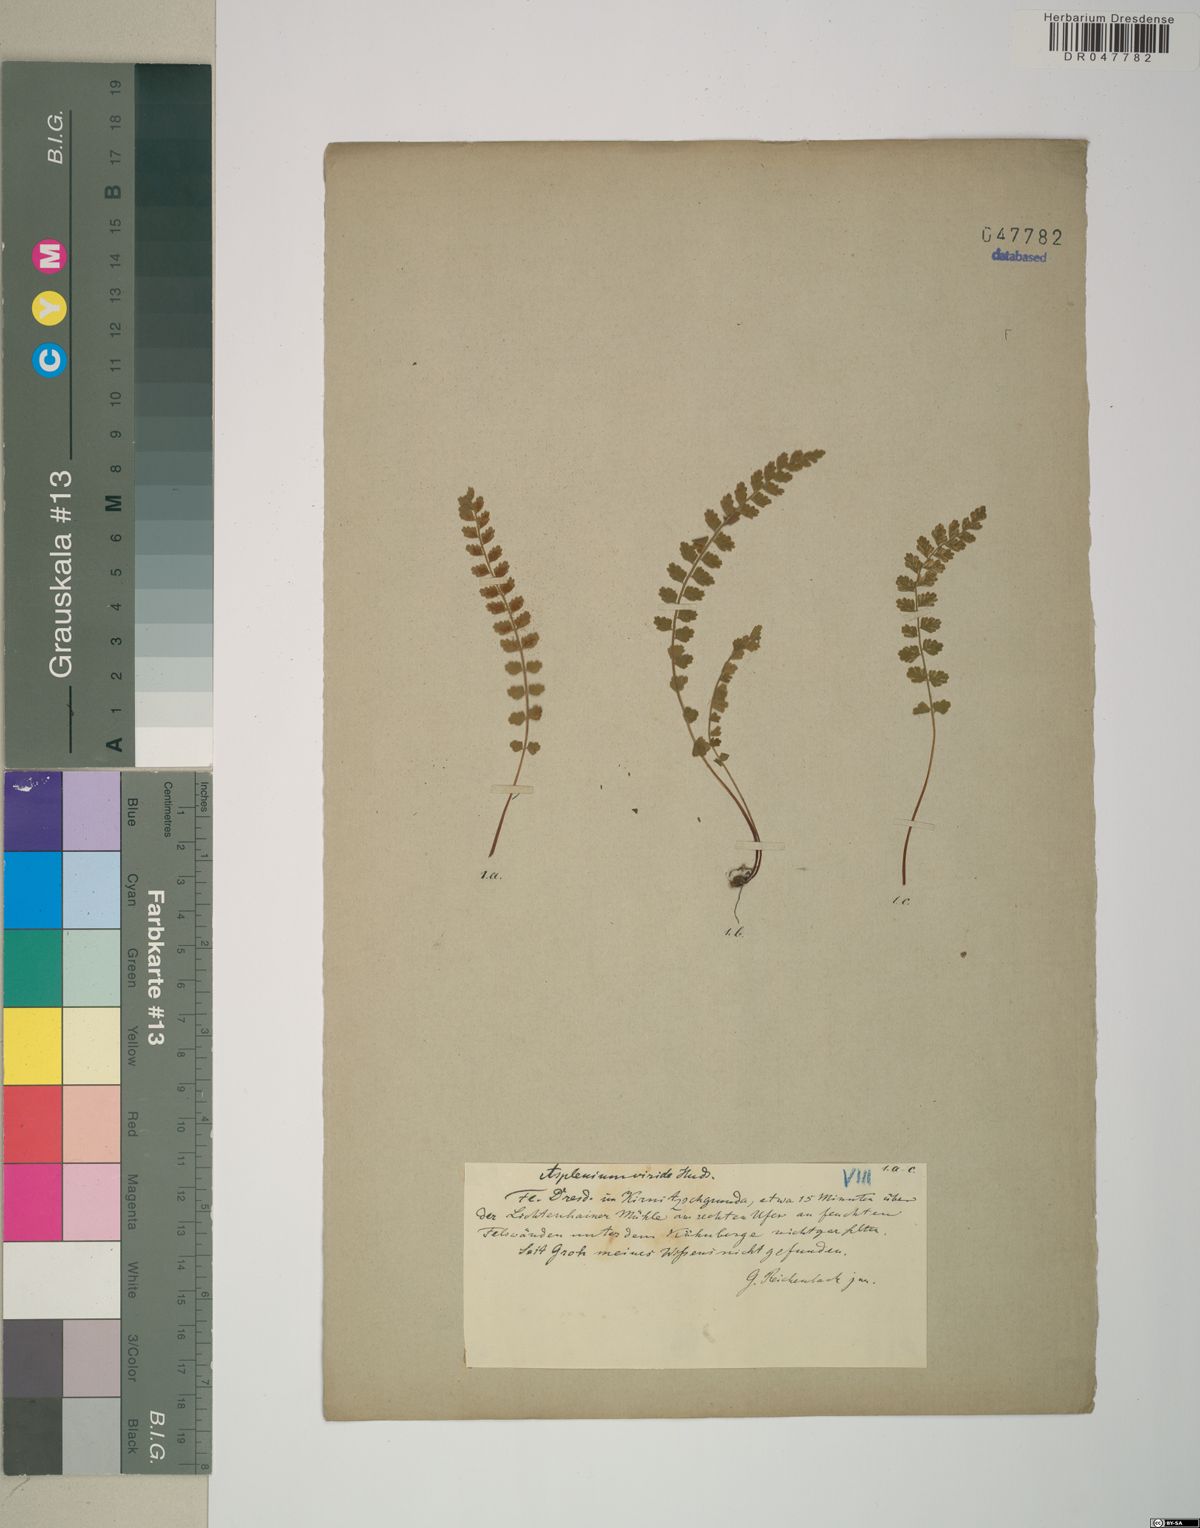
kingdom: Plantae
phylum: Tracheophyta
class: Polypodiopsida
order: Polypodiales
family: Aspleniaceae
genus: Asplenium
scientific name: Asplenium viride
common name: Green spleenwort
